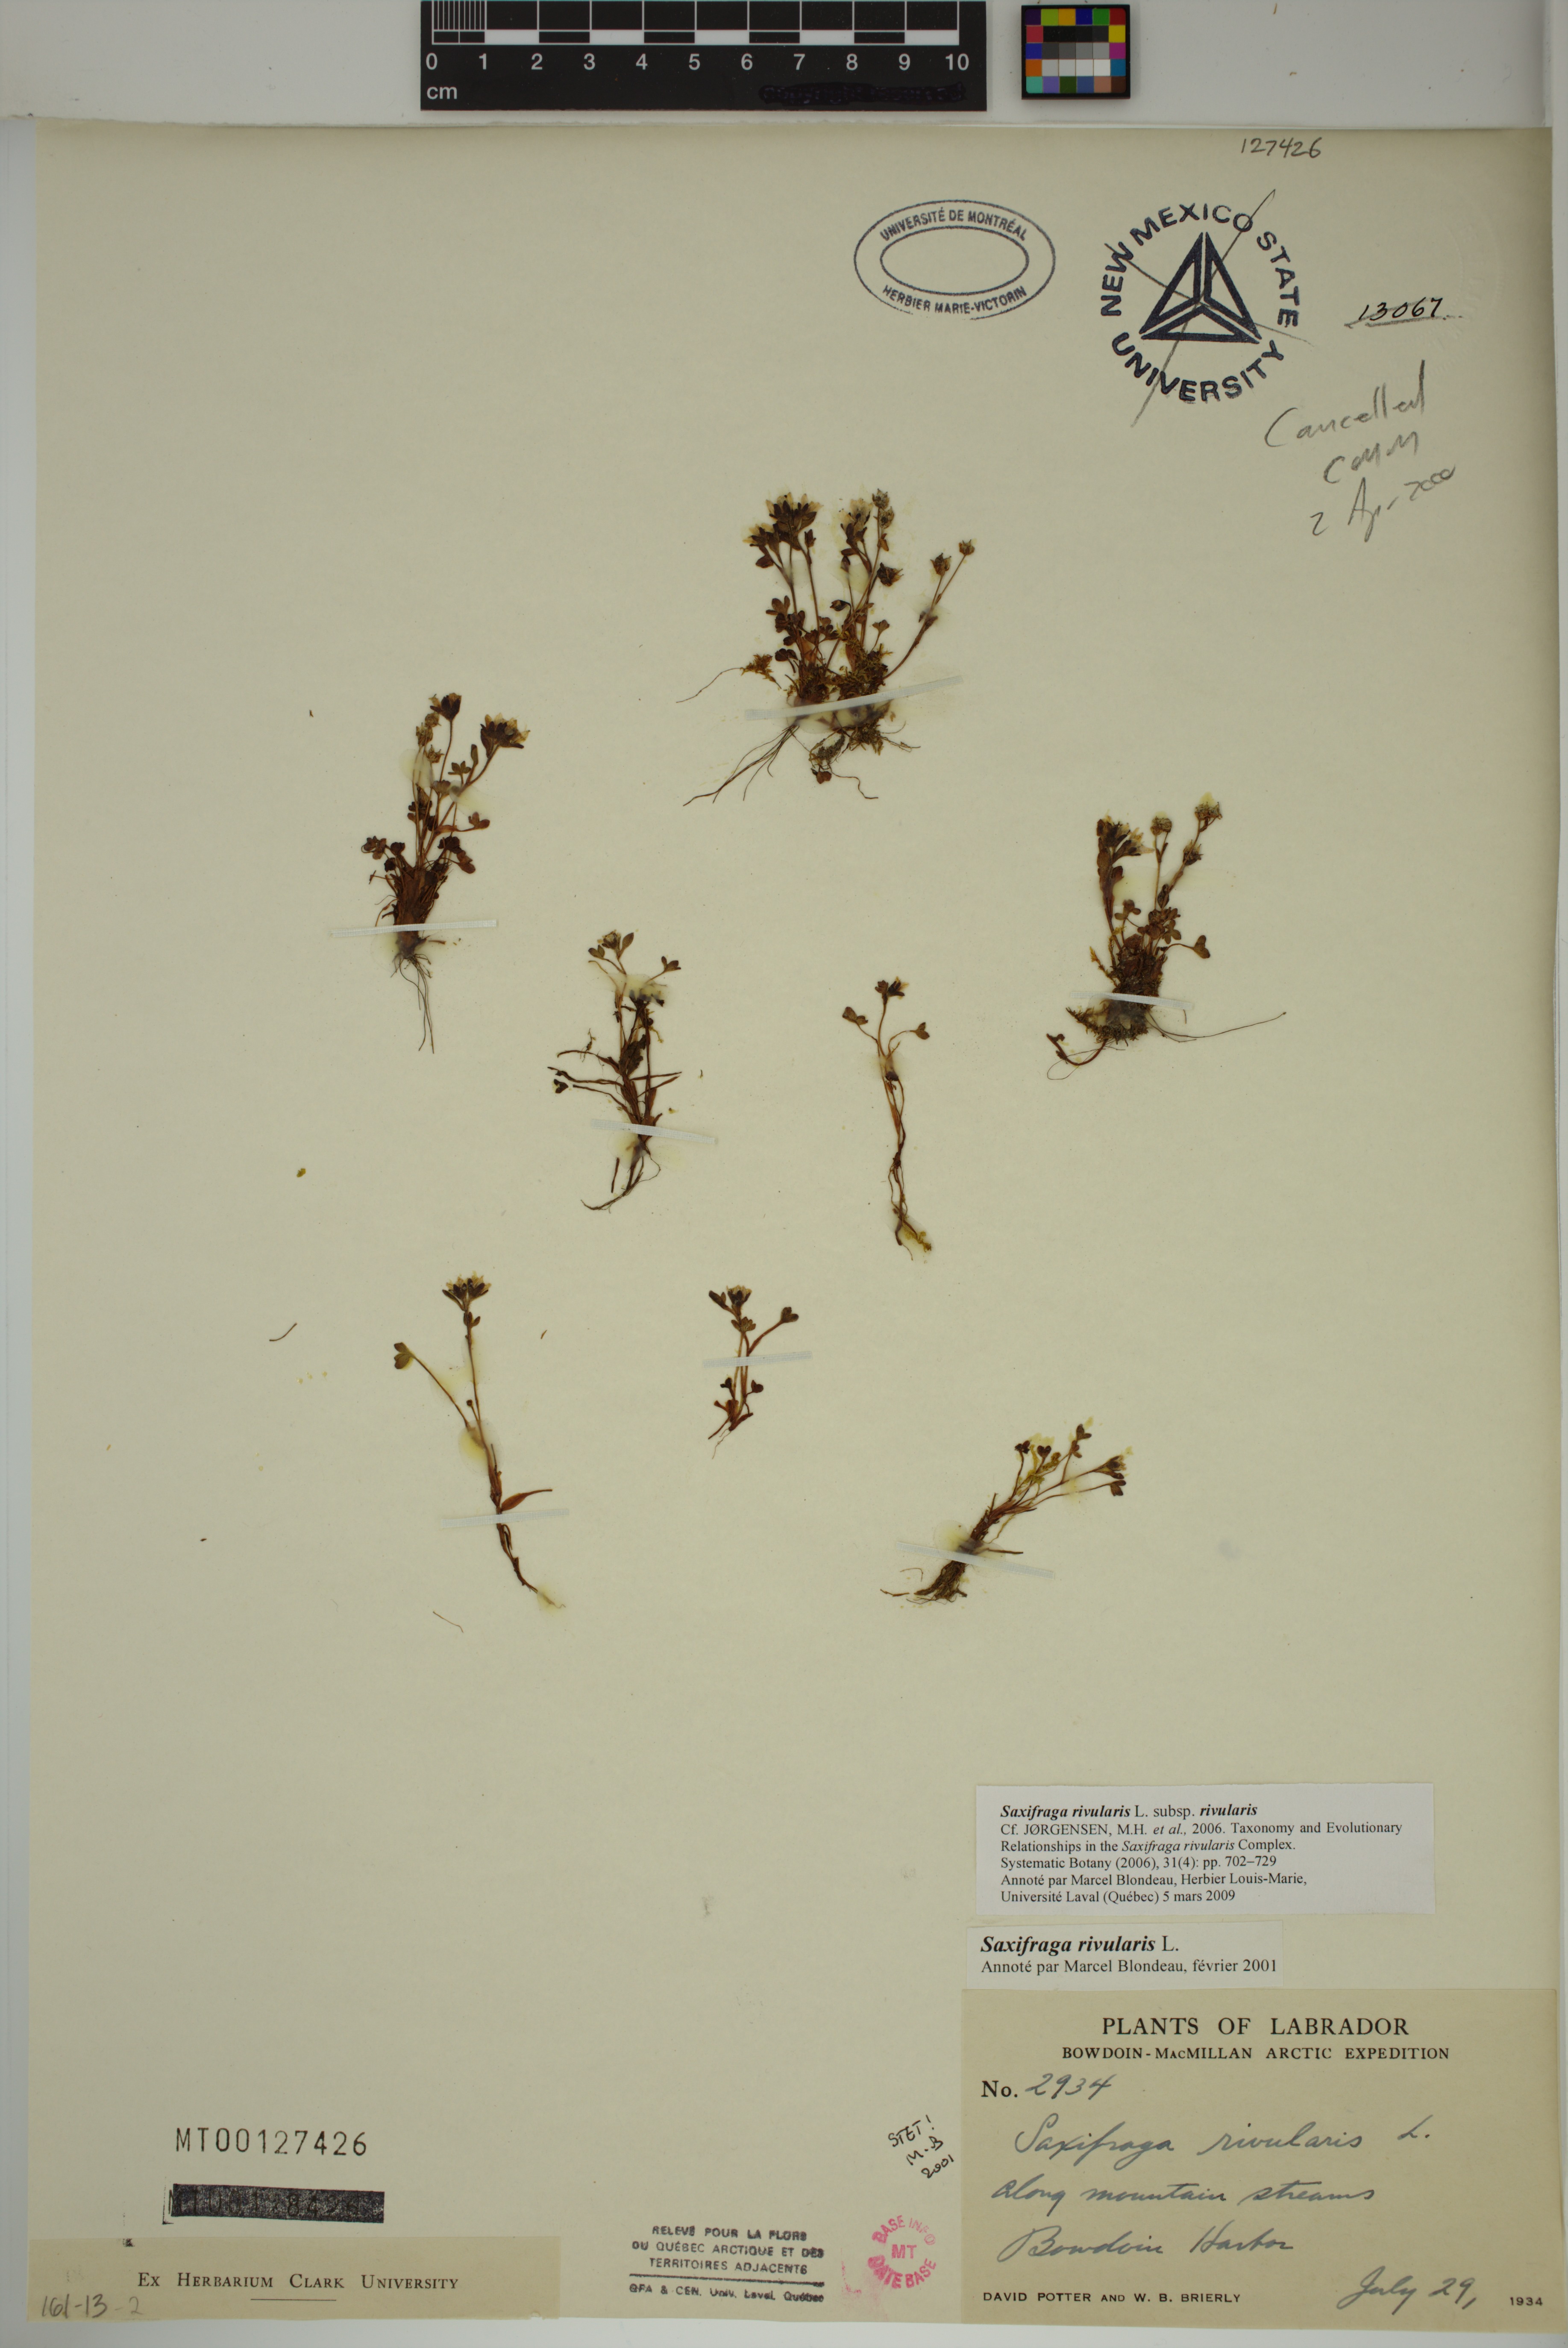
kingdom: Plantae
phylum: Tracheophyta
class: Magnoliopsida
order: Saxifragales
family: Saxifragaceae
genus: Saxifraga
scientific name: Saxifraga rivularis
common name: Highland saxifrage
